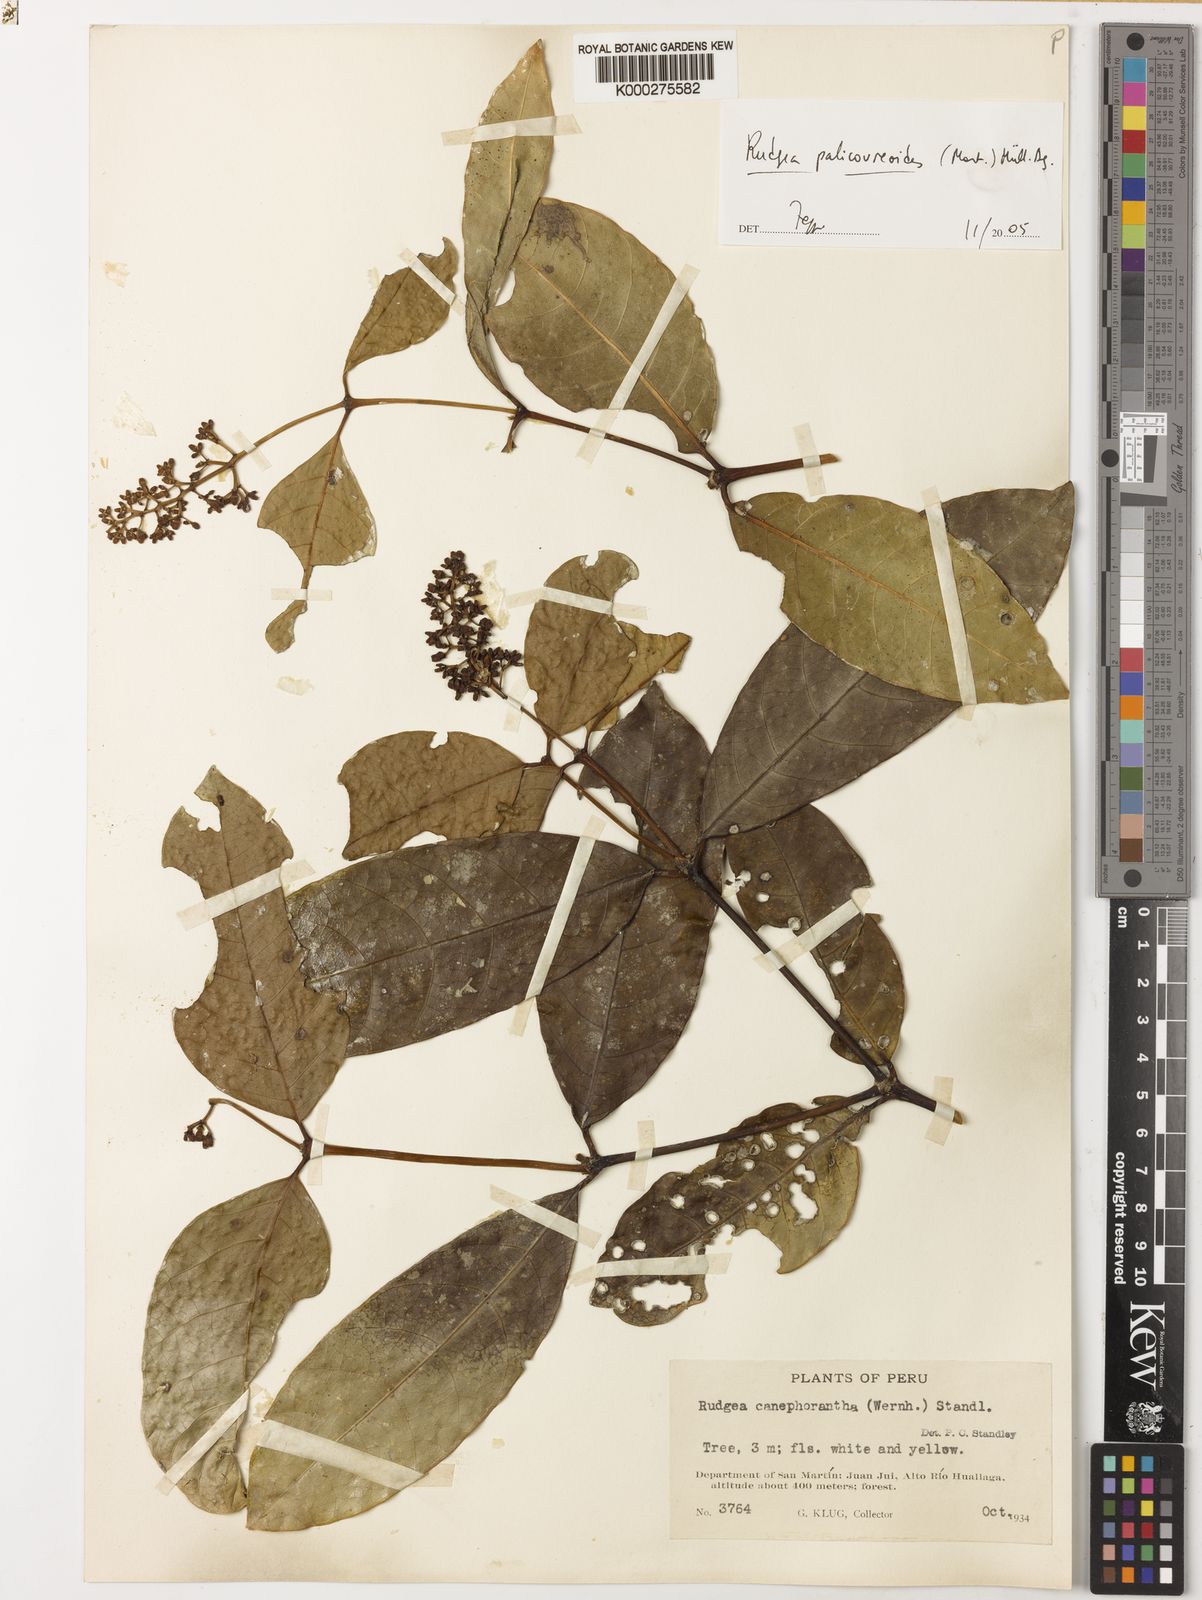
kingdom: Plantae
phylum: Tracheophyta
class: Magnoliopsida
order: Gentianales
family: Rubiaceae
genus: Rudgea
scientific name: Rudgea palicoureoides
